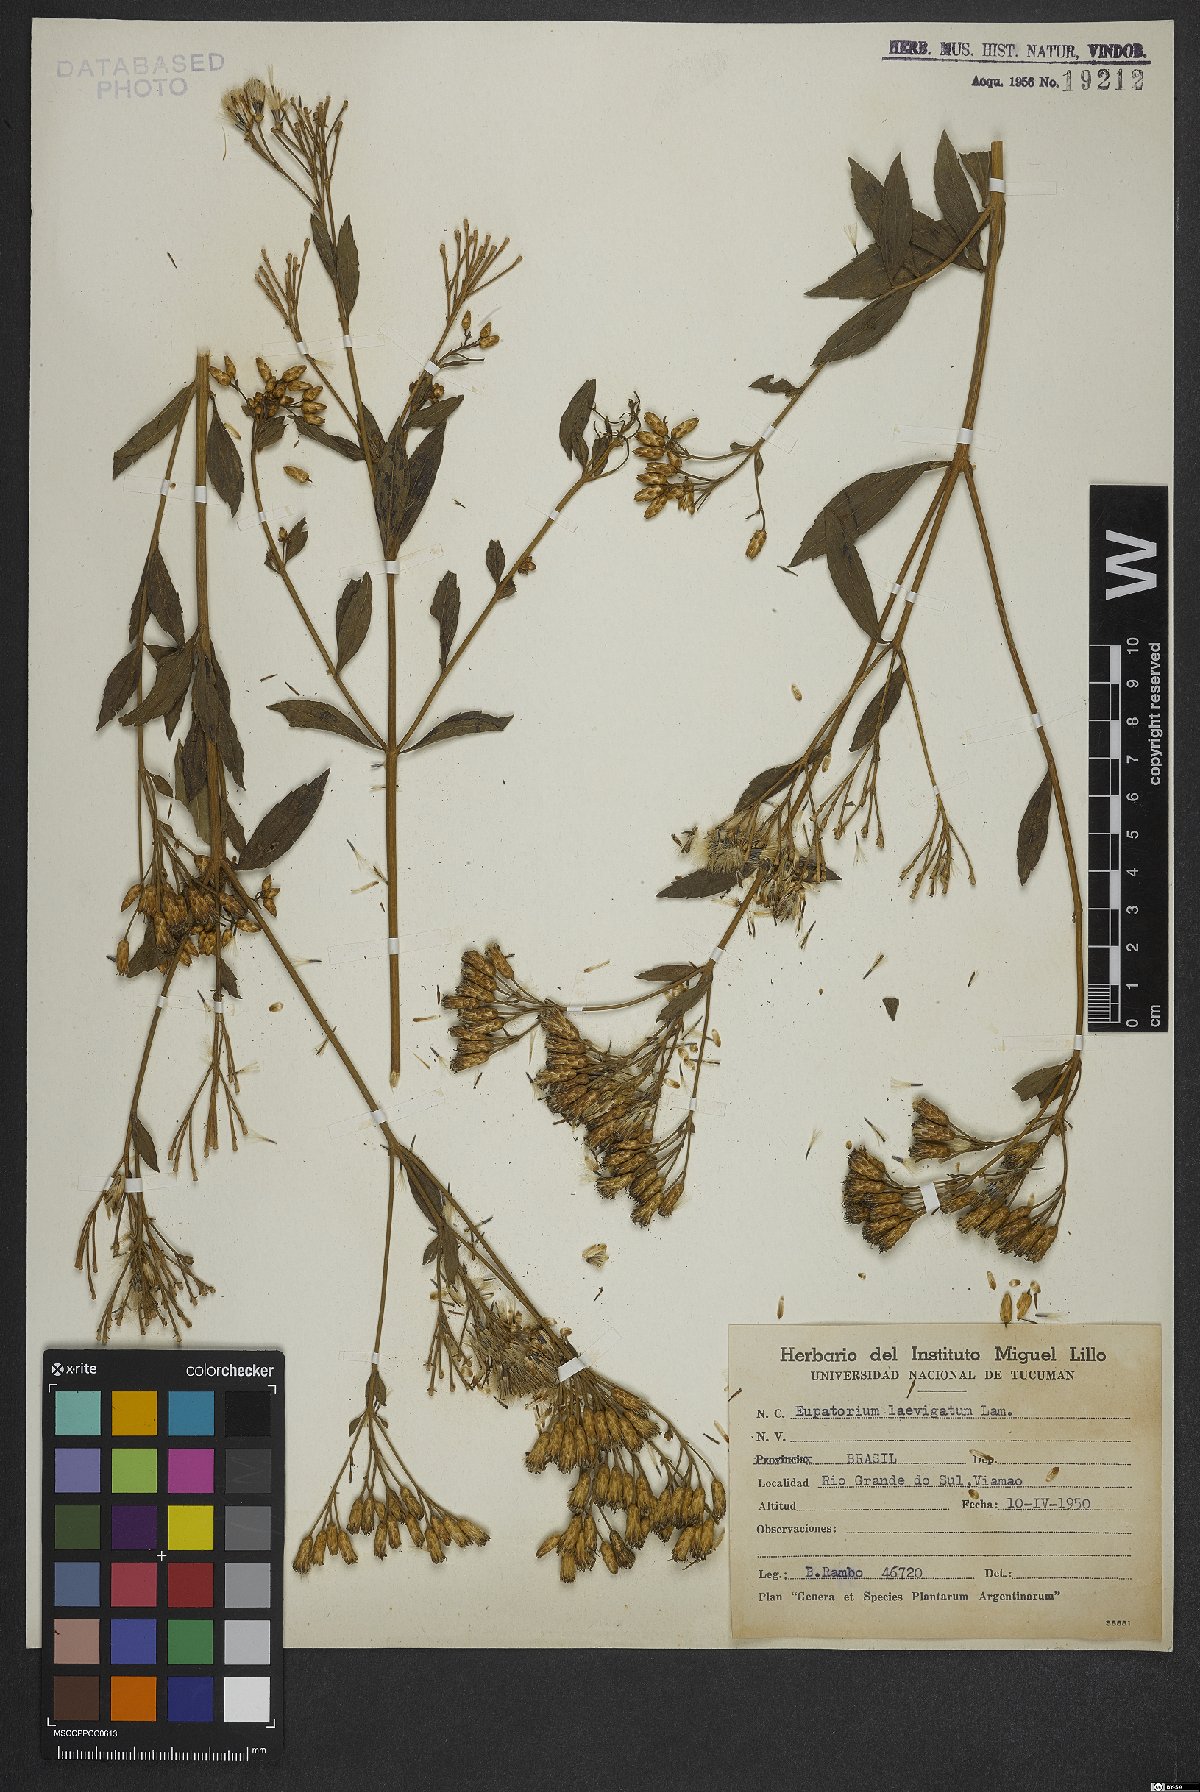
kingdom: Plantae
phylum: Tracheophyta
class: Magnoliopsida
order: Asterales
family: Asteraceae
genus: Eupatorium
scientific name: Eupatorium laevigatum
